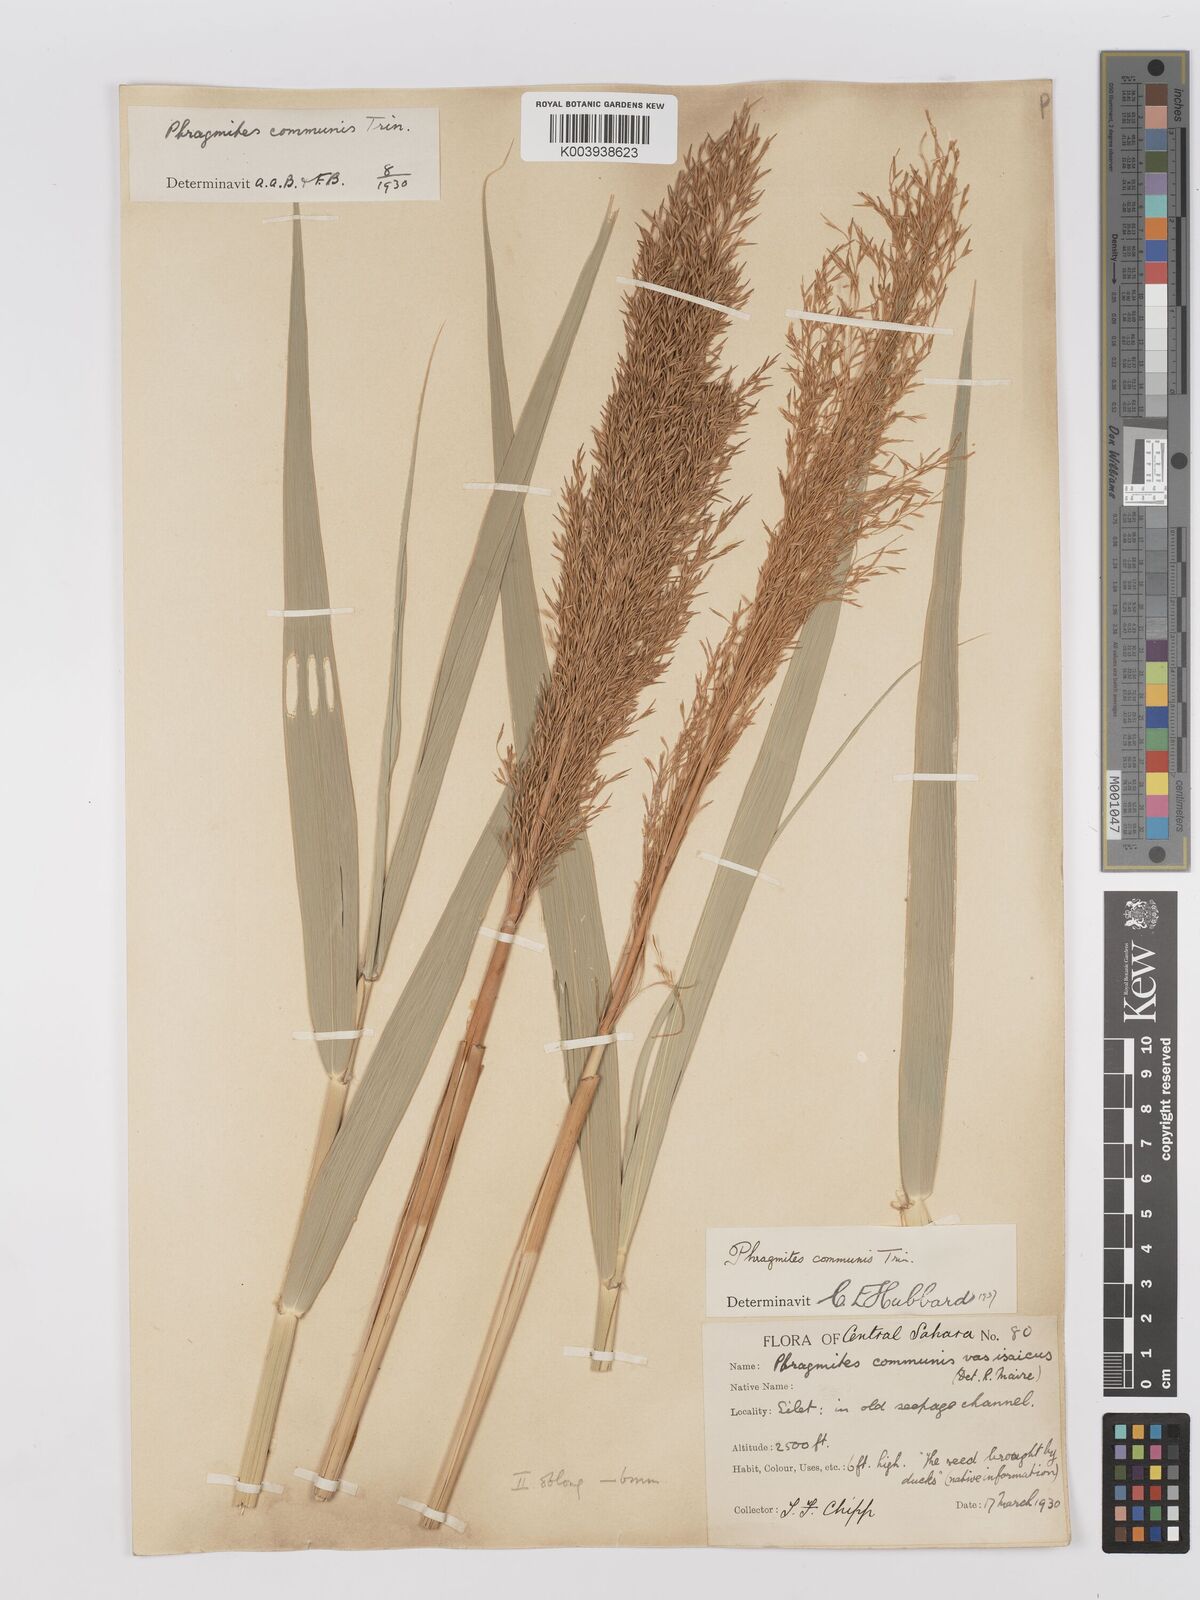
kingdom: Plantae
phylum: Tracheophyta
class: Liliopsida
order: Poales
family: Poaceae
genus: Phragmites
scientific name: Phragmites australis
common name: Common reed
